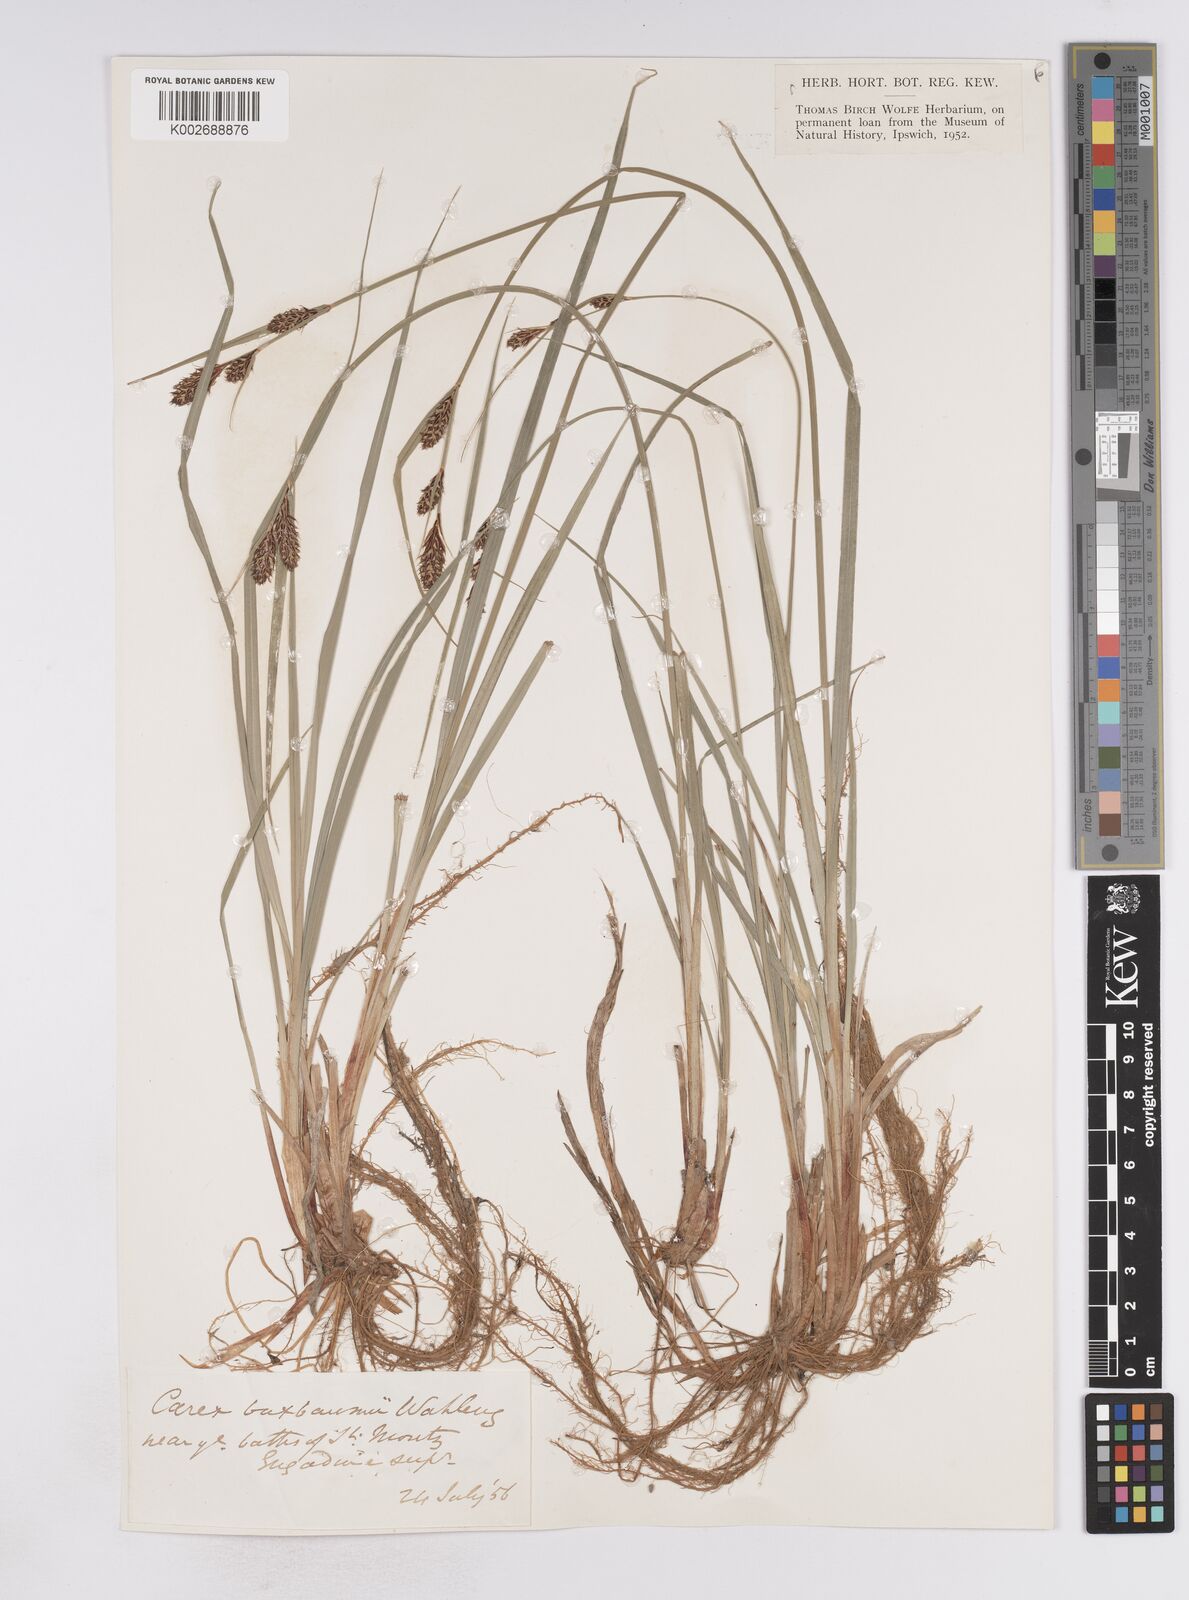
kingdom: Plantae
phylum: Tracheophyta
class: Liliopsida
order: Poales
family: Cyperaceae
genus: Carex
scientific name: Carex buxbaumii
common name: Club sedge
